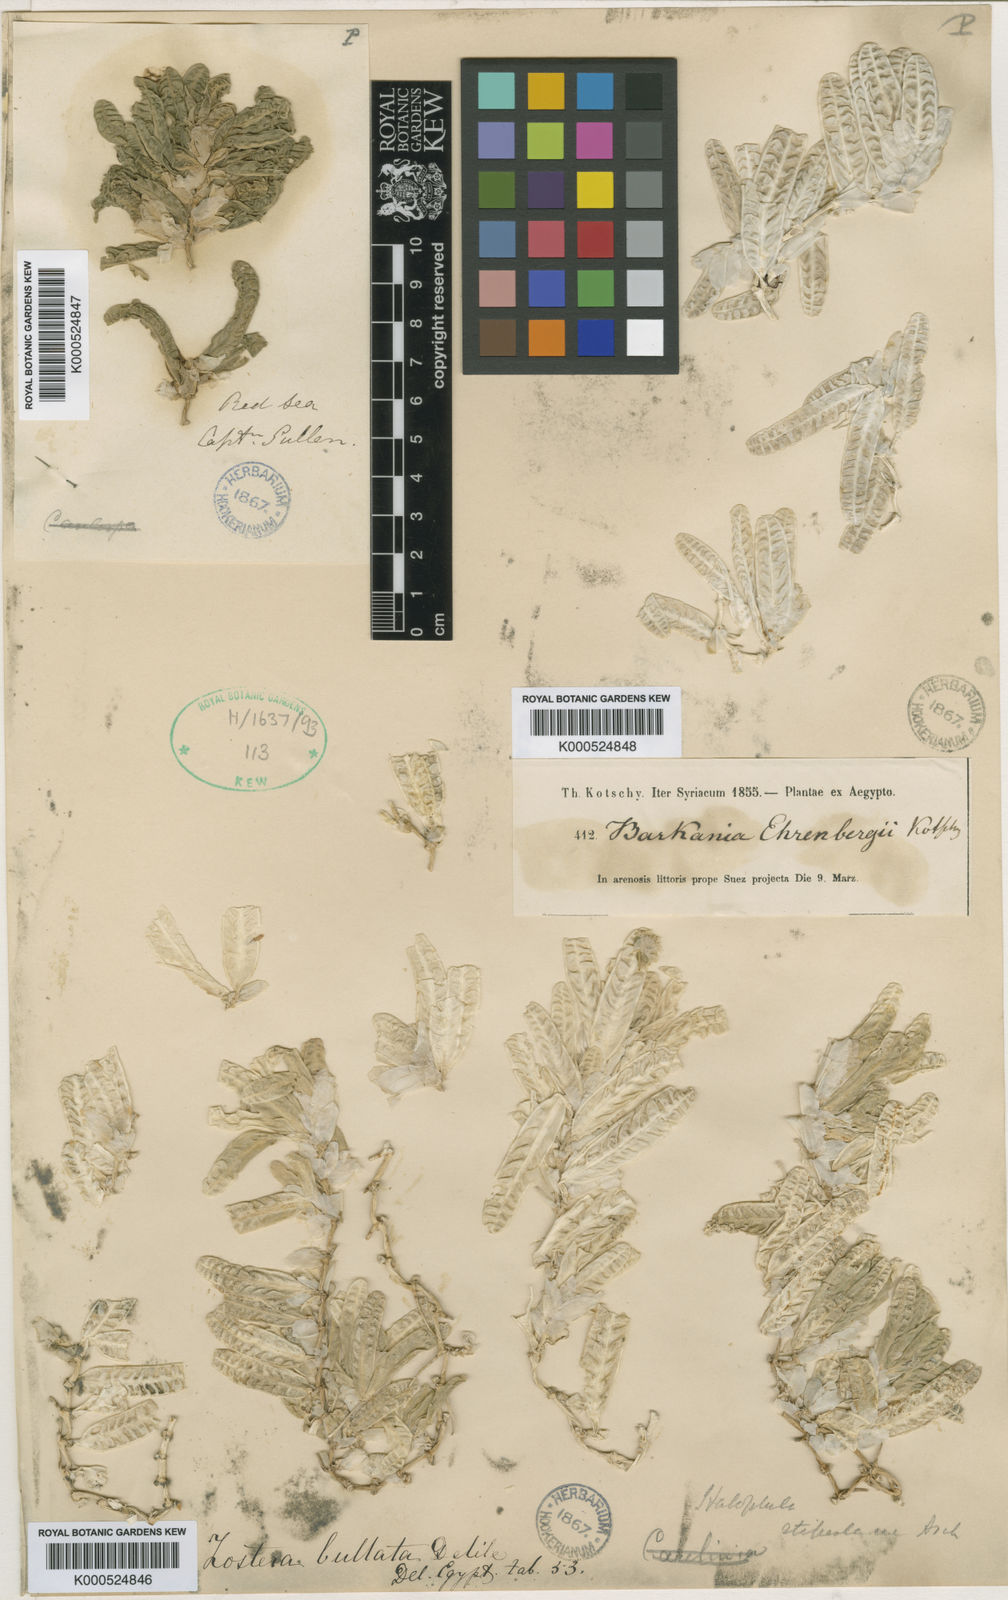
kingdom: Plantae
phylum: Tracheophyta
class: Liliopsida
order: Alismatales
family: Hydrocharitaceae
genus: Halophila
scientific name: Halophila stipulacea
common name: Species code: hs
